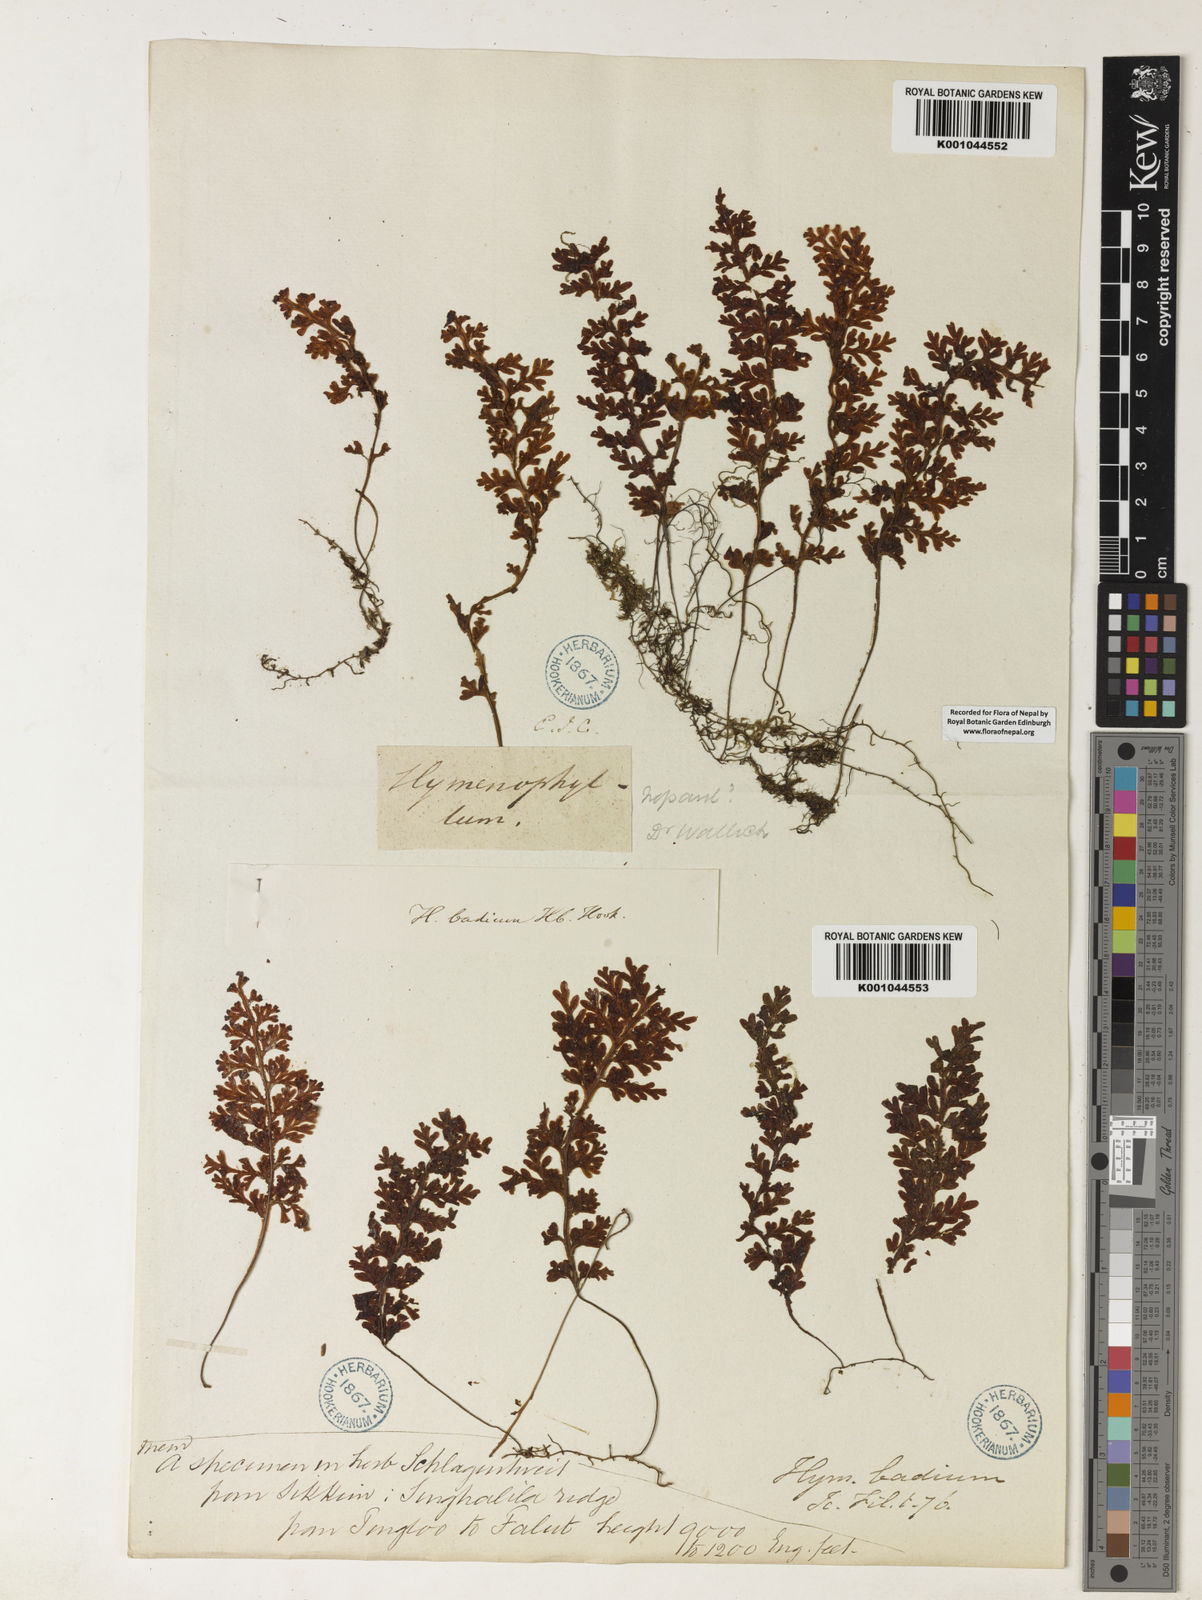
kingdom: Plantae
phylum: Tracheophyta
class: Polypodiopsida
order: Hymenophyllales
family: Hymenophyllaceae
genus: Hymenophyllum
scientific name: Hymenophyllum badium
